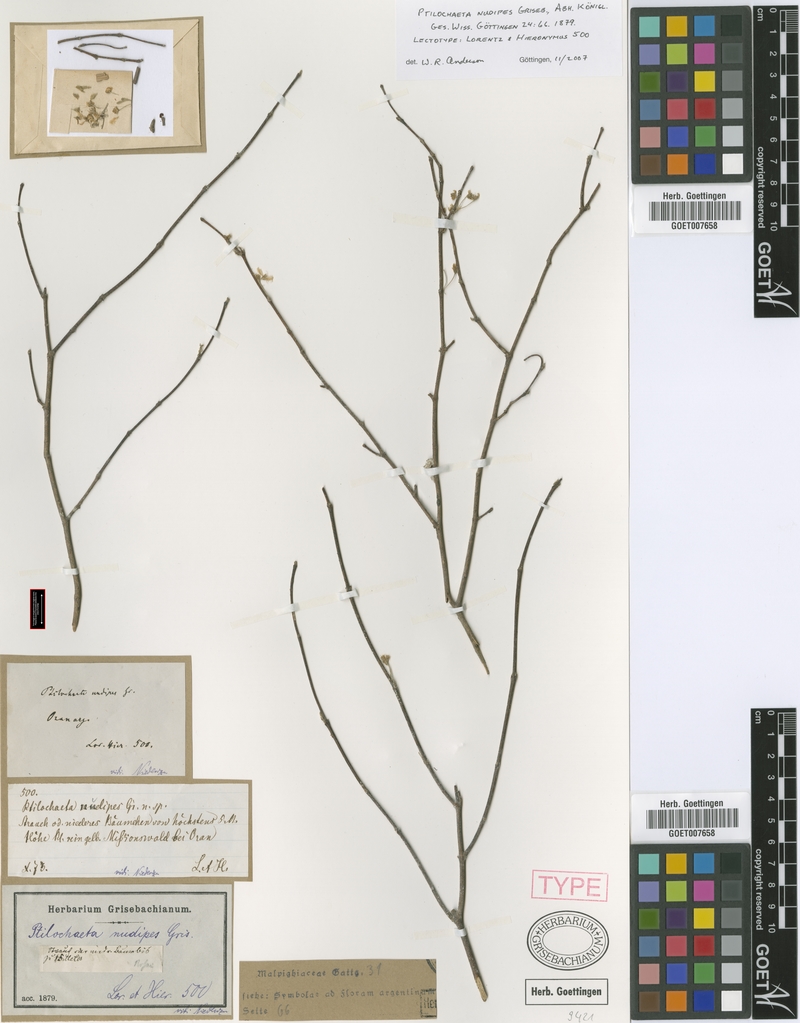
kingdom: Plantae
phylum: Tracheophyta
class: Magnoliopsida
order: Malpighiales
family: Malpighiaceae
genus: Ptilochaeta
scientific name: Ptilochaeta nudipes
